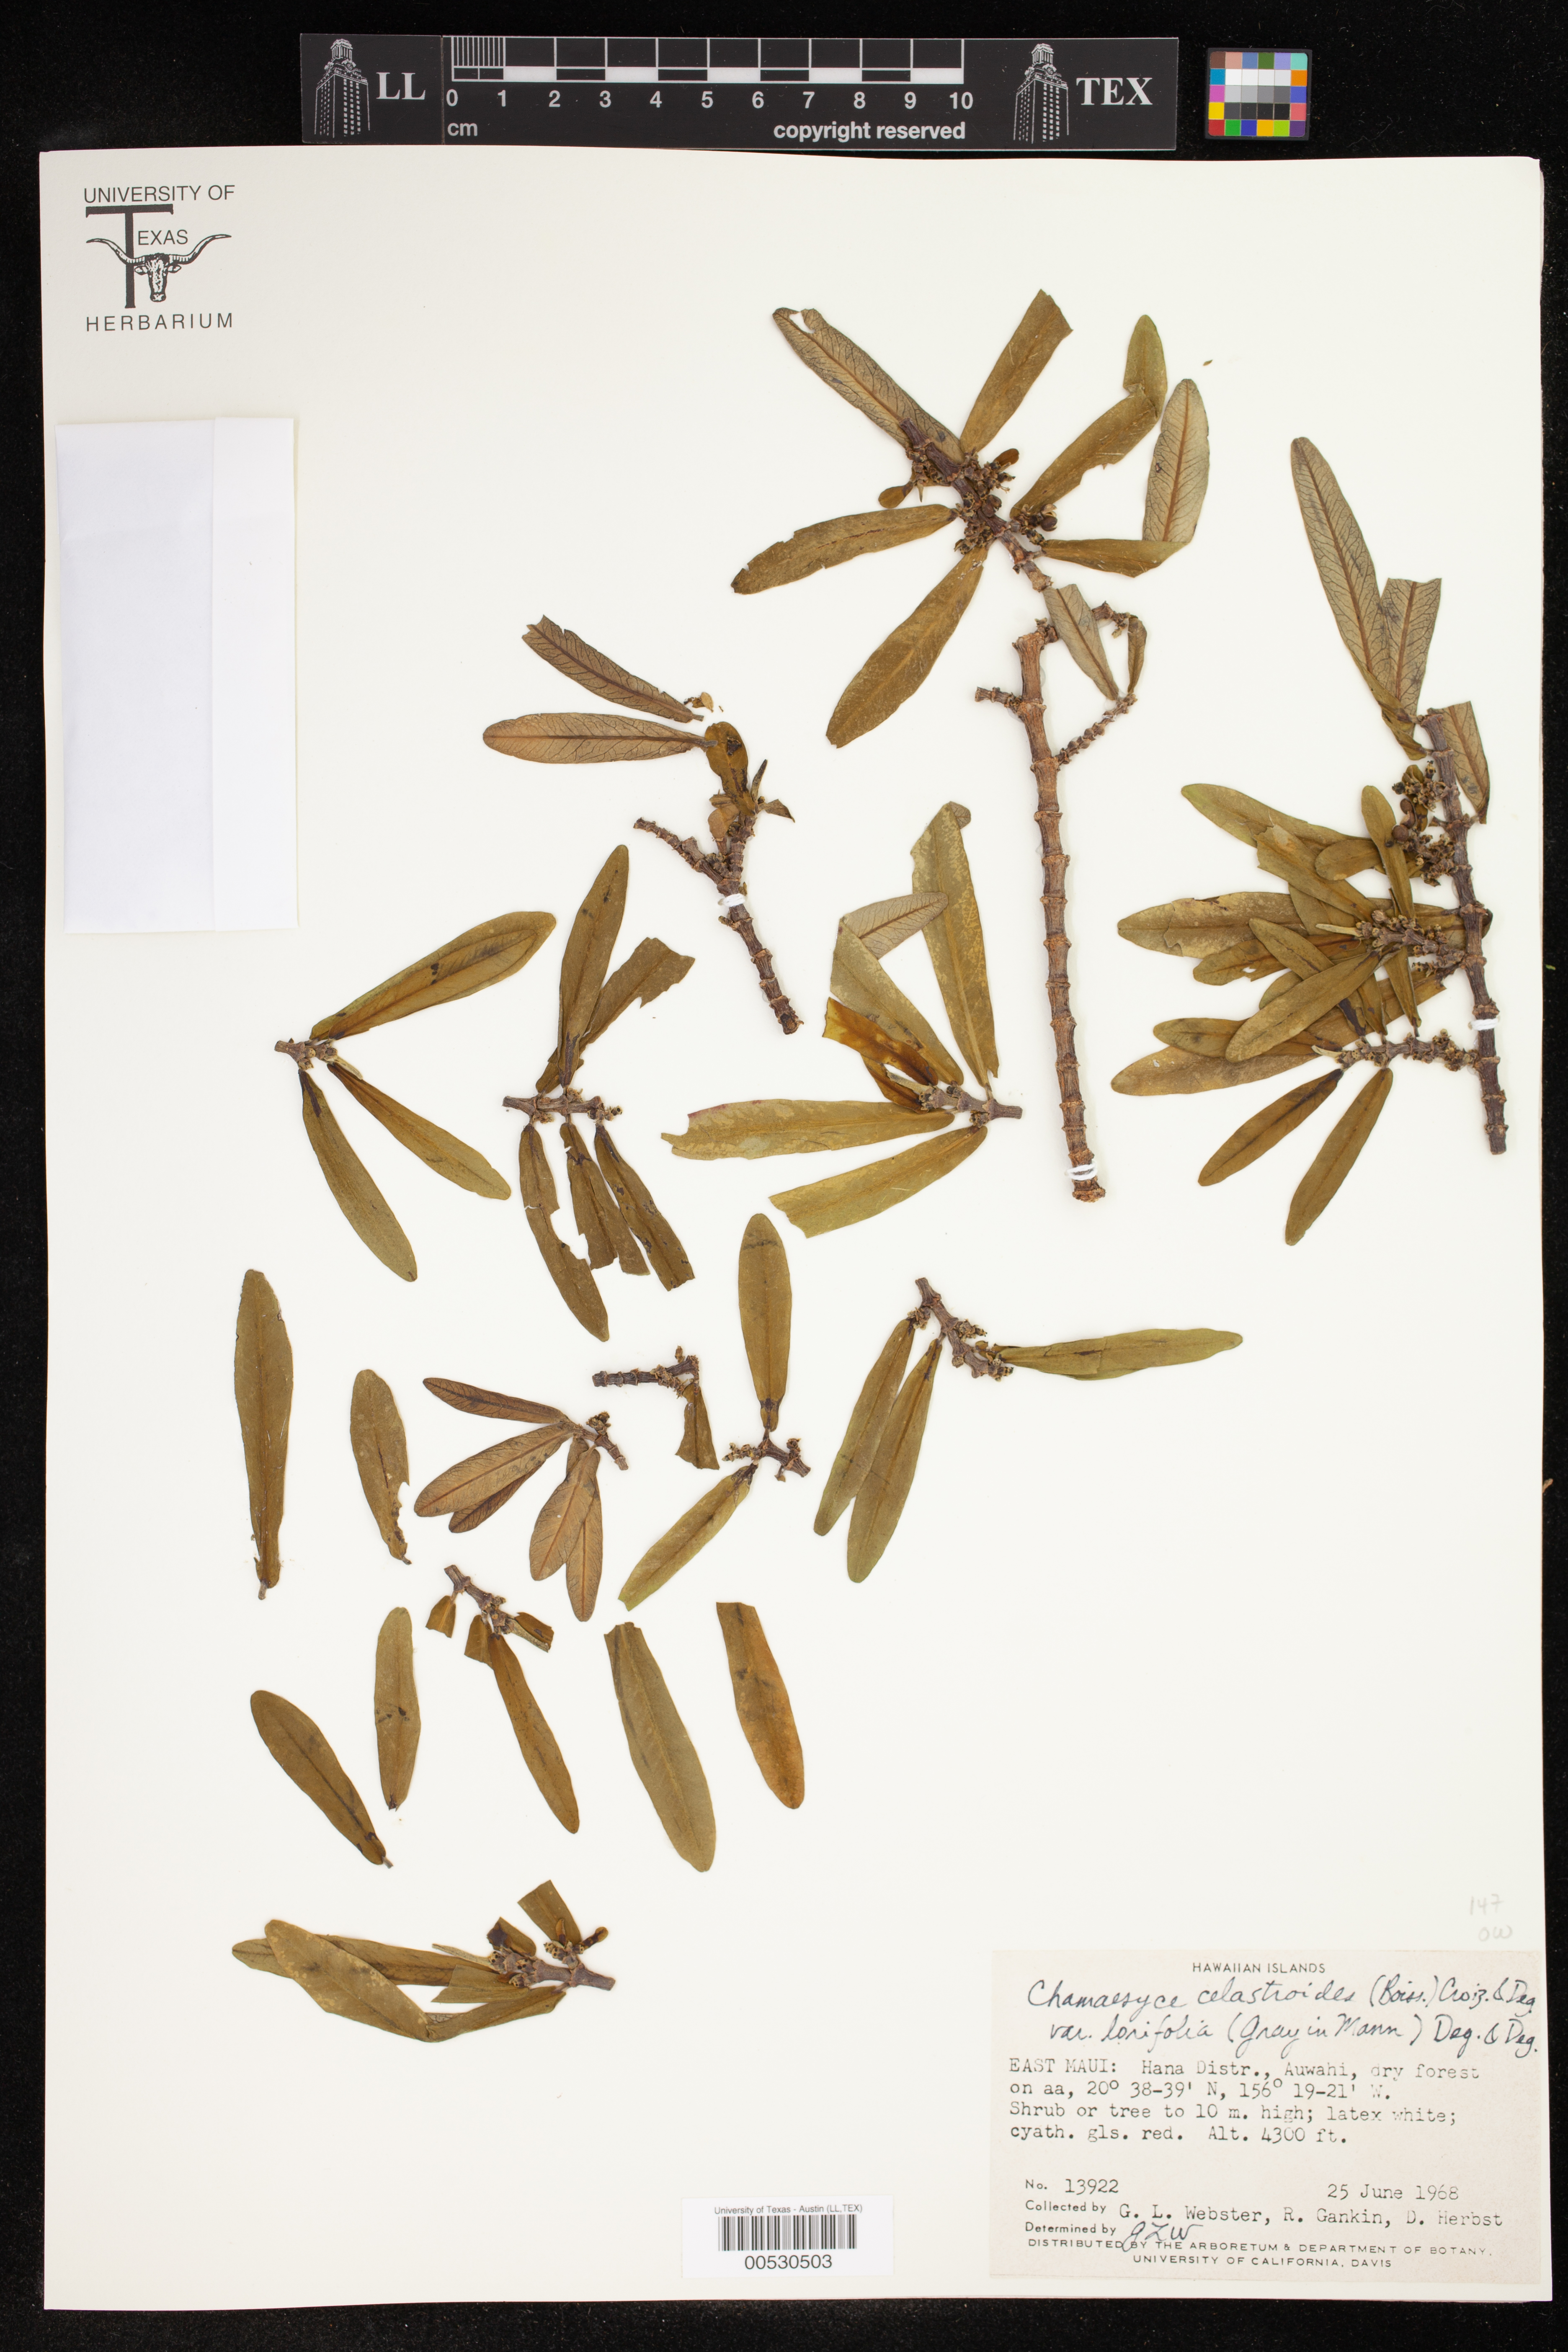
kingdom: Plantae
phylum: Tracheophyta
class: Magnoliopsida
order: Malpighiales
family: Euphorbiaceae
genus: Euphorbia
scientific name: Euphorbia celastroides
